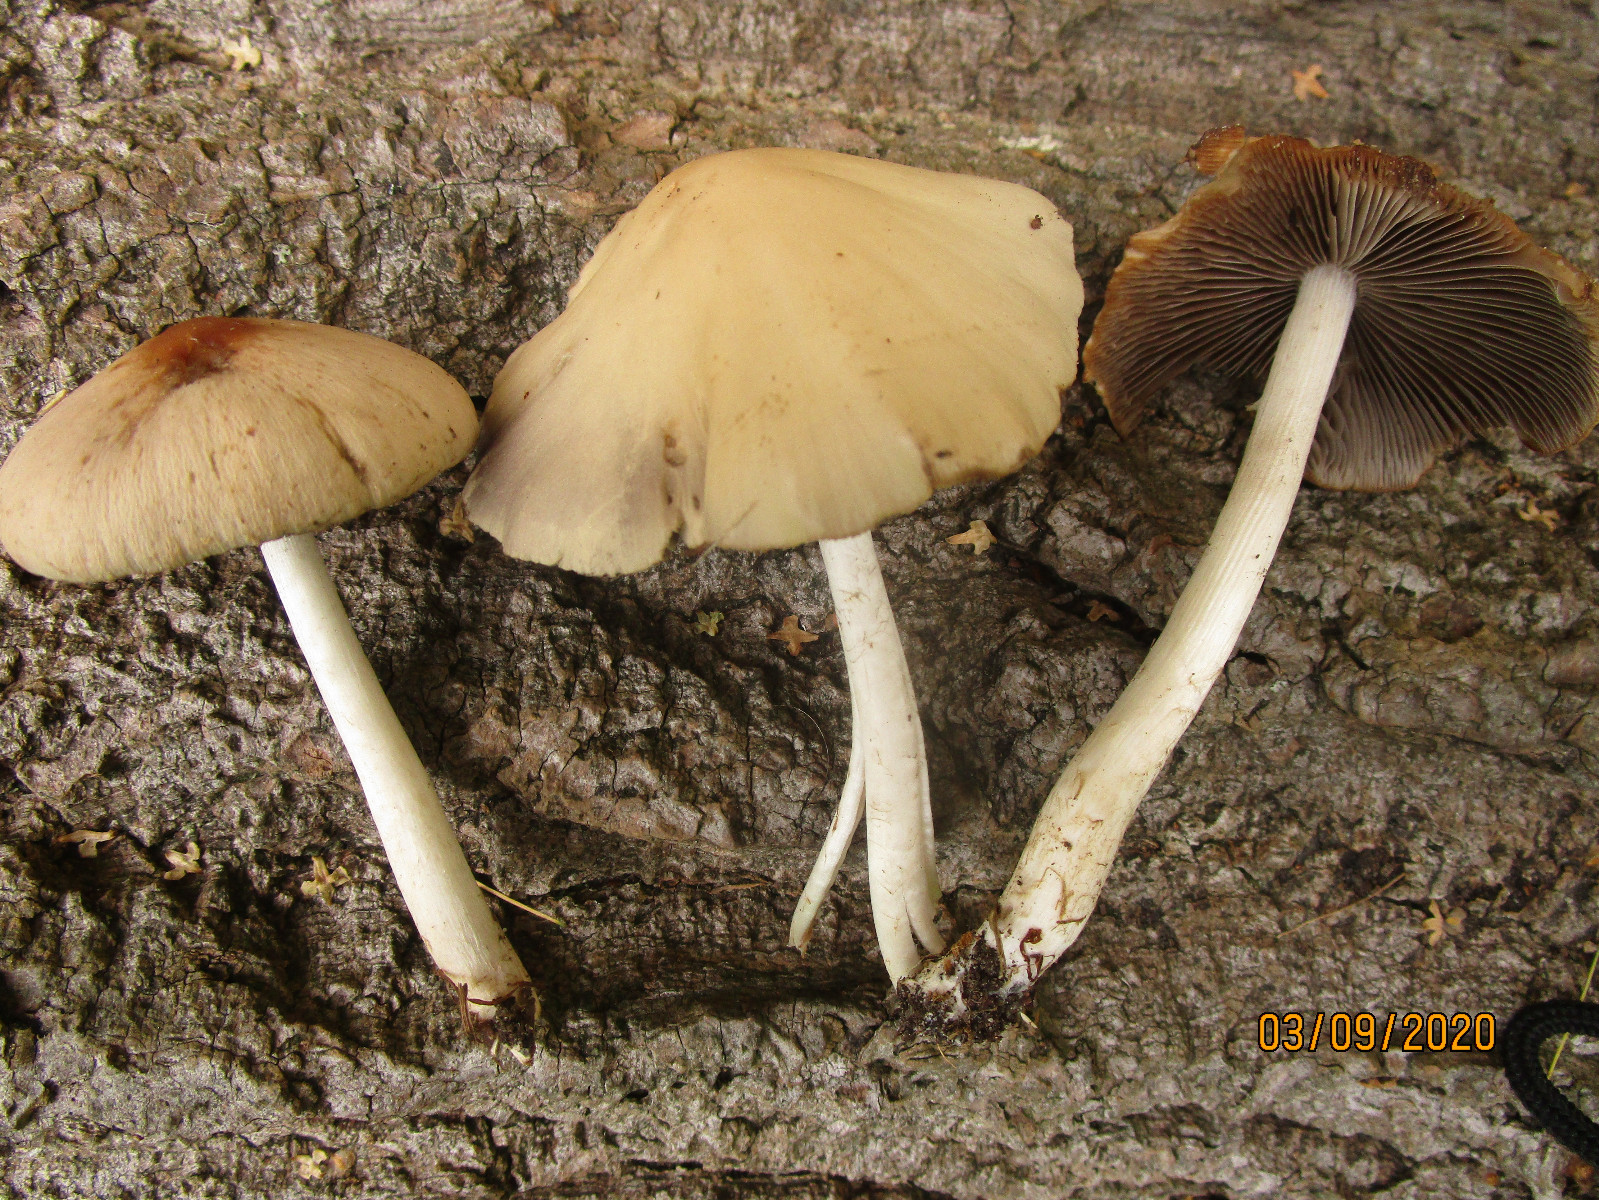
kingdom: Fungi
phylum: Basidiomycota
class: Agaricomycetes
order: Agaricales
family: Psathyrellaceae
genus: Psathyrella
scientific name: Psathyrella
